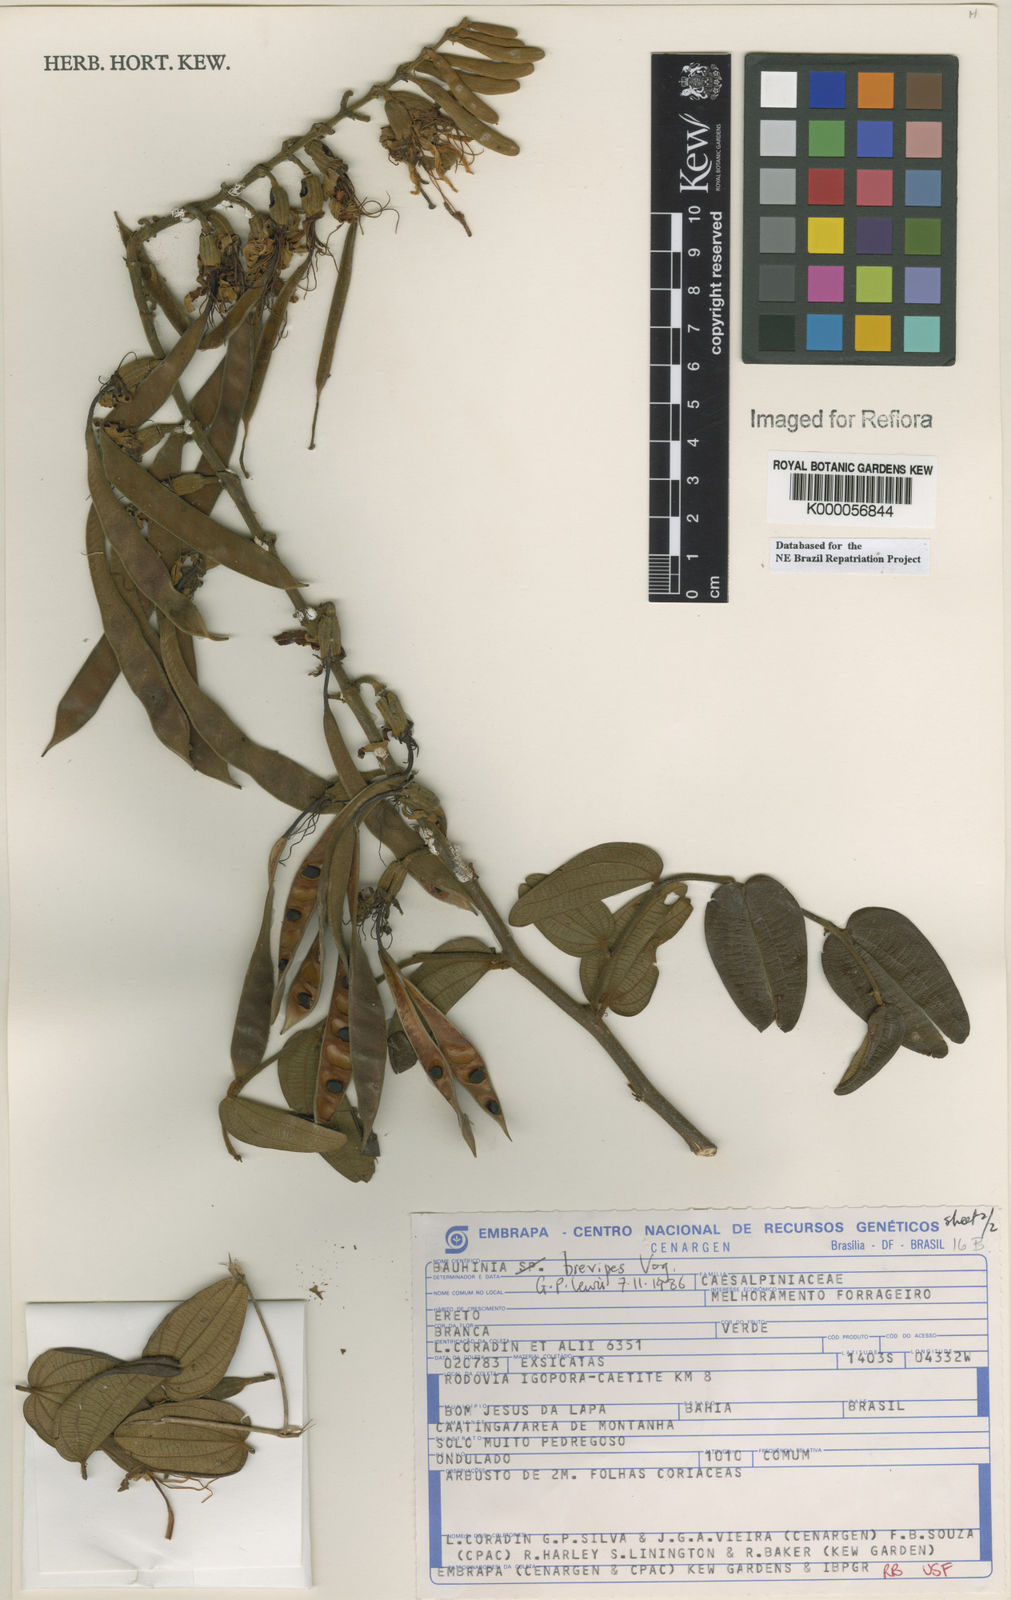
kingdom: Plantae
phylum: Tracheophyta
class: Magnoliopsida
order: Fabales
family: Fabaceae
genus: Bauhinia
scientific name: Bauhinia brevipes
